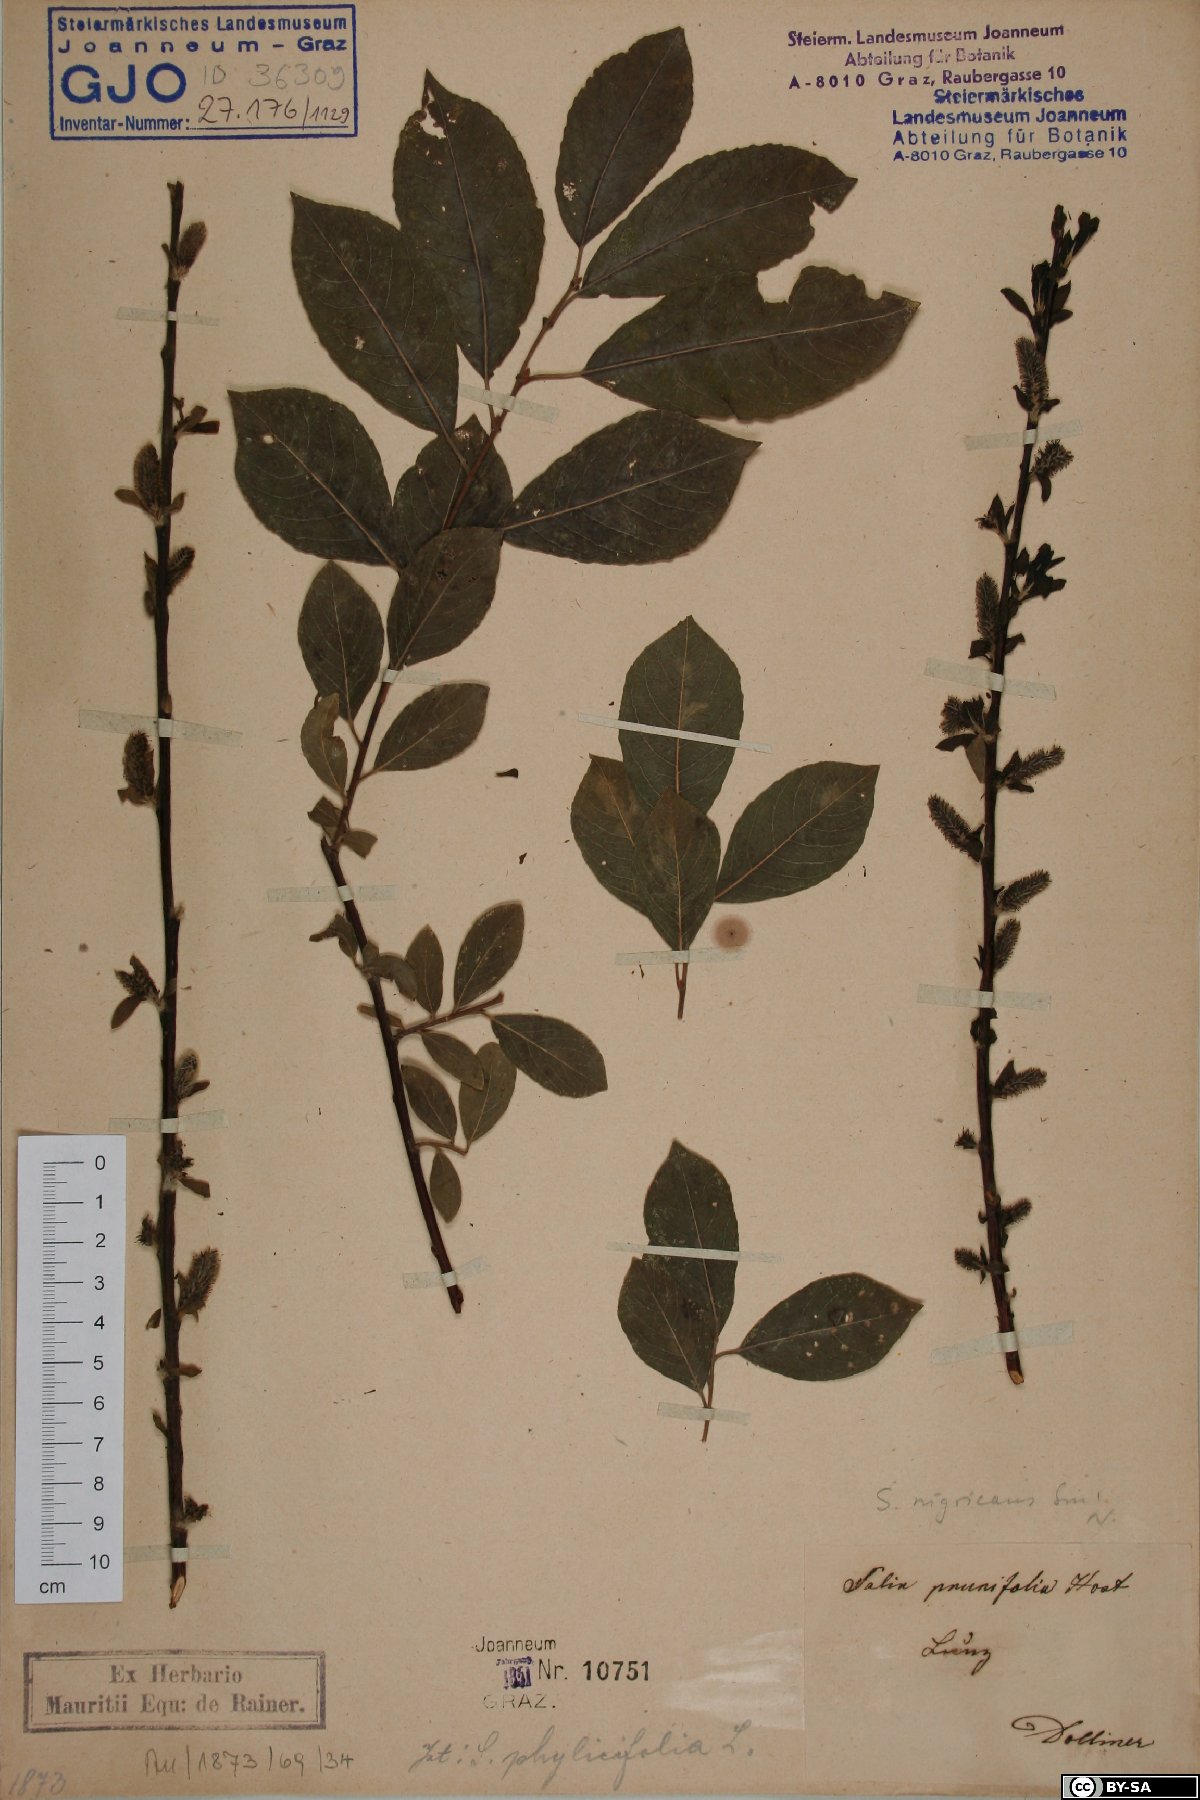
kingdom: Plantae
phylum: Tracheophyta
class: Magnoliopsida
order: Malpighiales
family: Salicaceae
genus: Salix
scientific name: Salix myrsinifolia
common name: Dark-leaved willow
